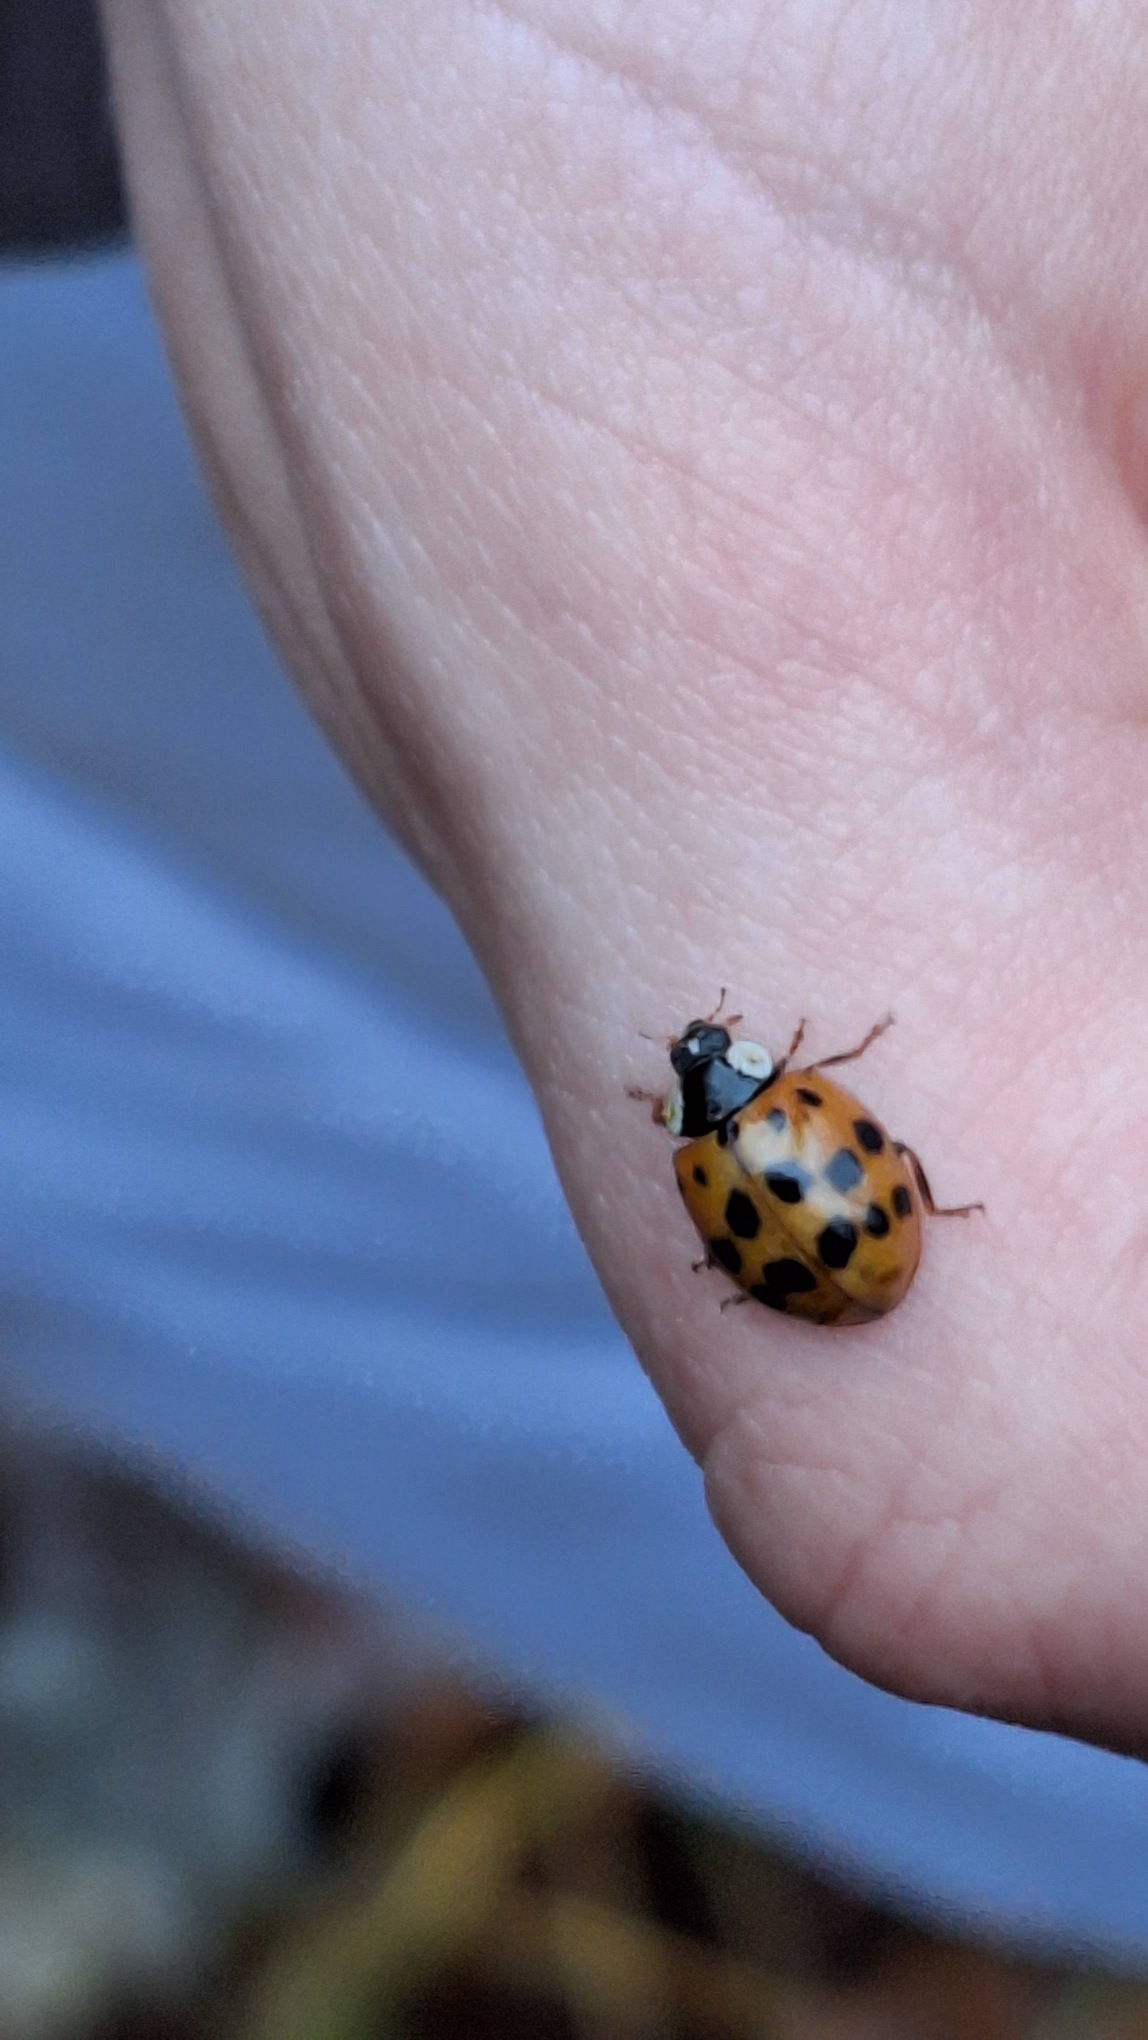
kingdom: Animalia
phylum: Arthropoda
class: Insecta
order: Coleoptera
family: Coccinellidae
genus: Harmonia
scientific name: Harmonia axyridis
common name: Harlekinmariehøne
